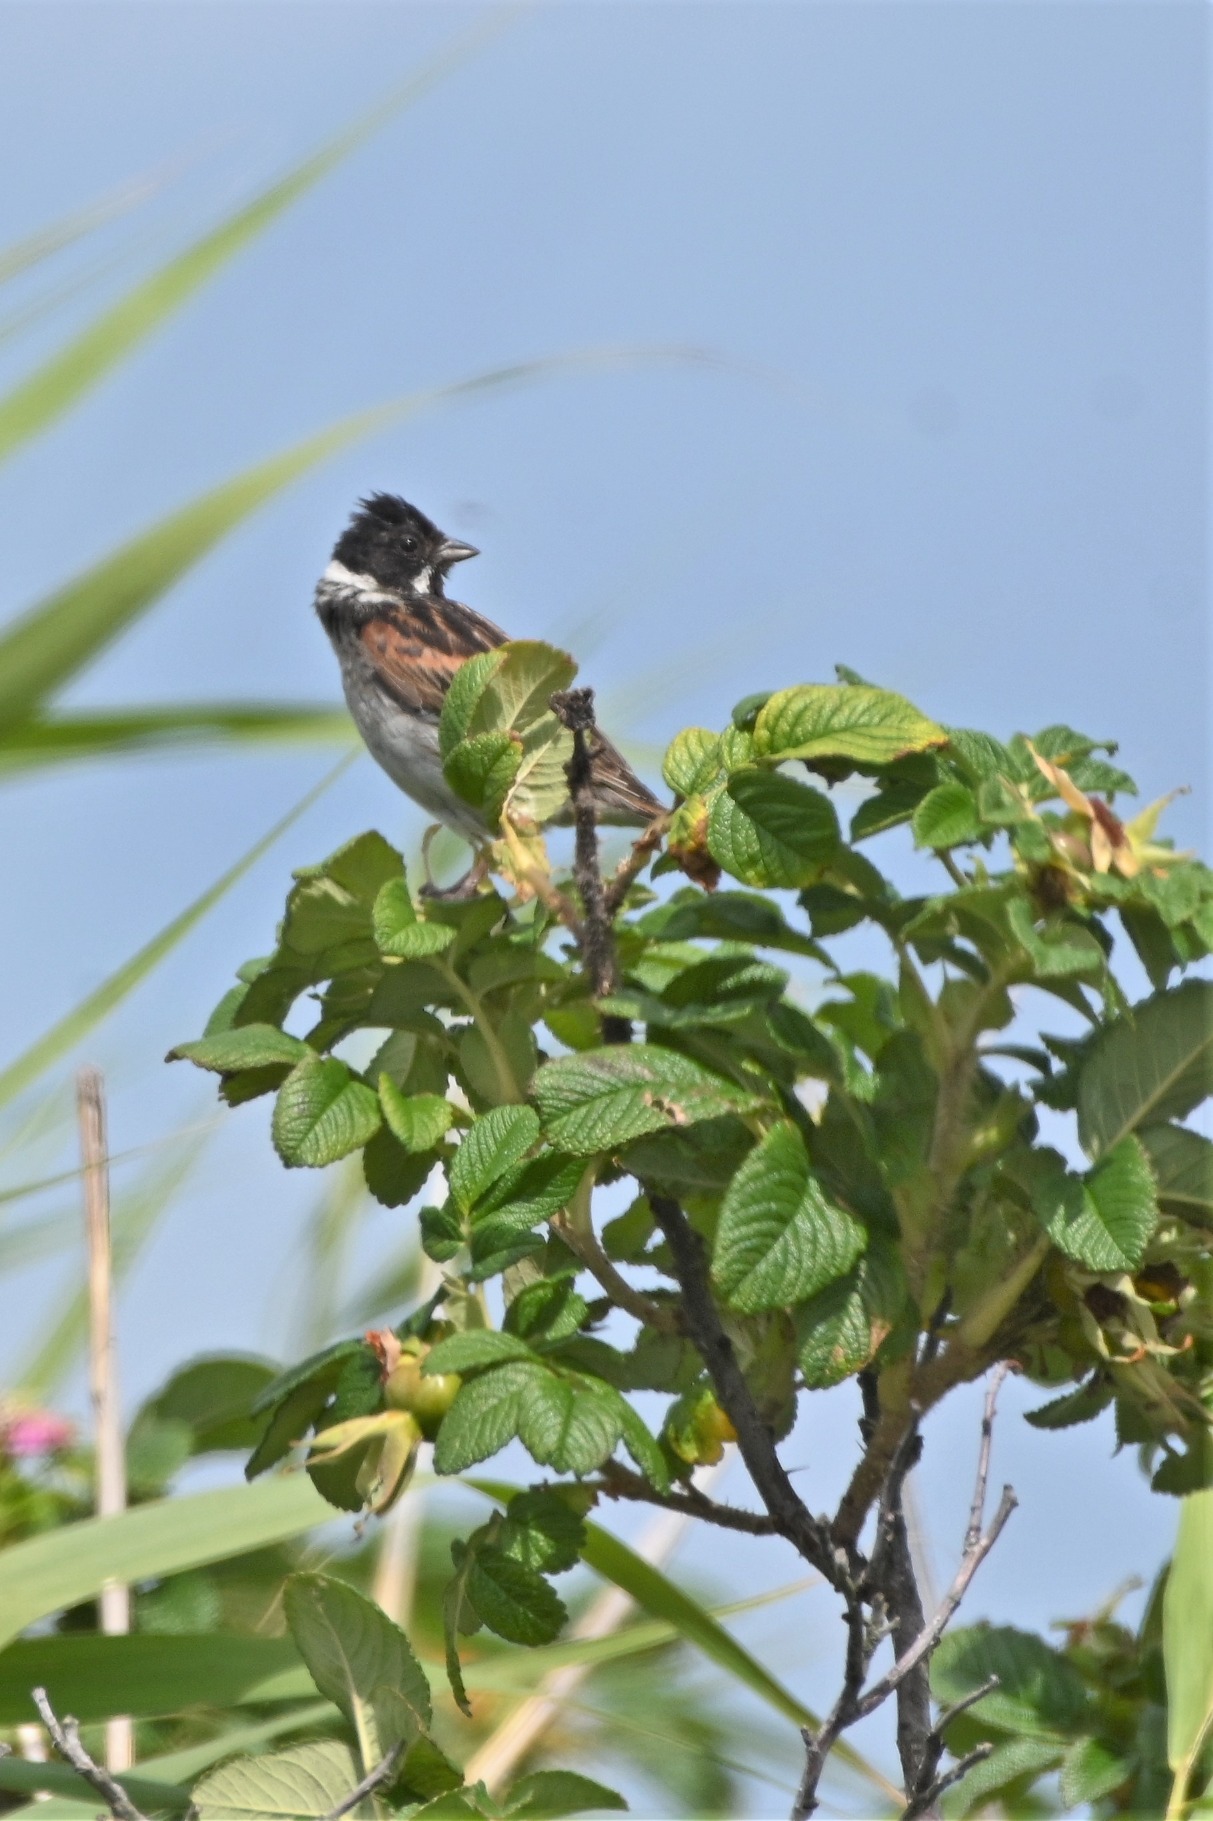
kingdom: Animalia
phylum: Chordata
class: Aves
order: Passeriformes
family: Emberizidae
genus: Emberiza
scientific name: Emberiza schoeniclus
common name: Rørspurv
